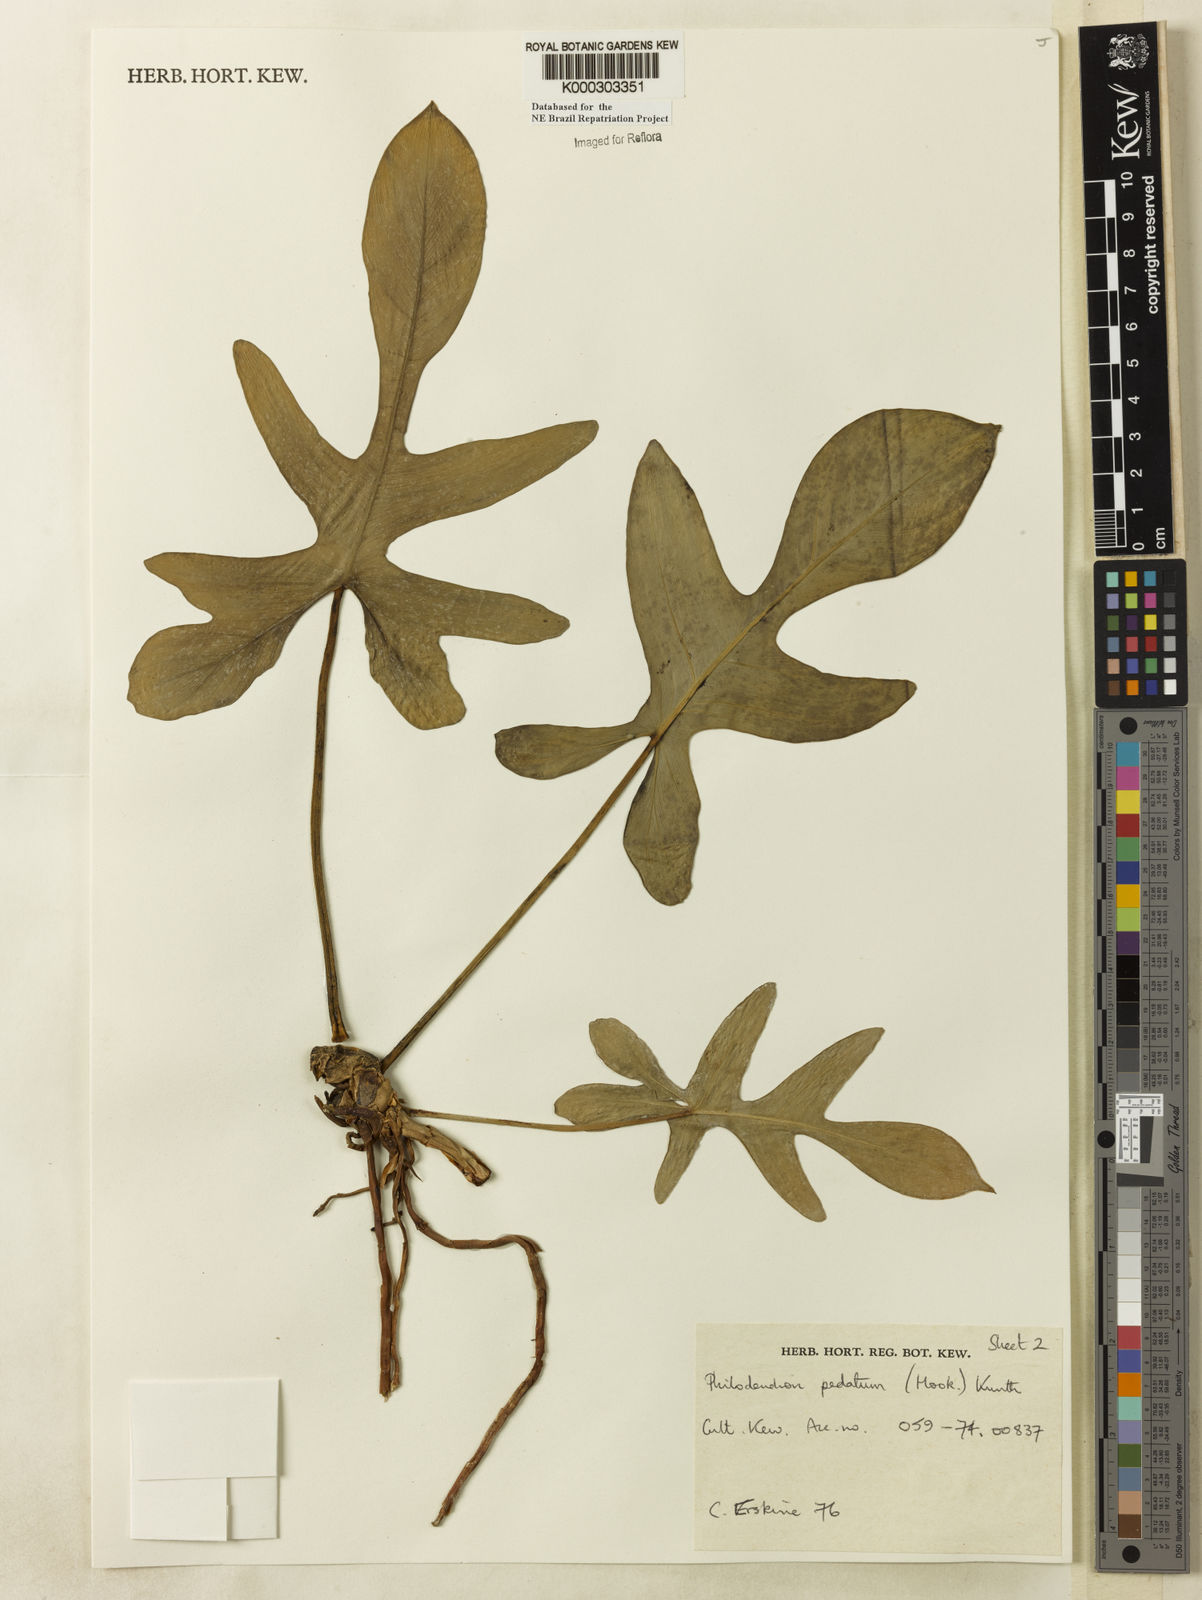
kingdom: Plantae
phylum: Tracheophyta
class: Liliopsida
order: Alismatales
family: Araceae
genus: Philodendron
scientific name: Philodendron pedatum
